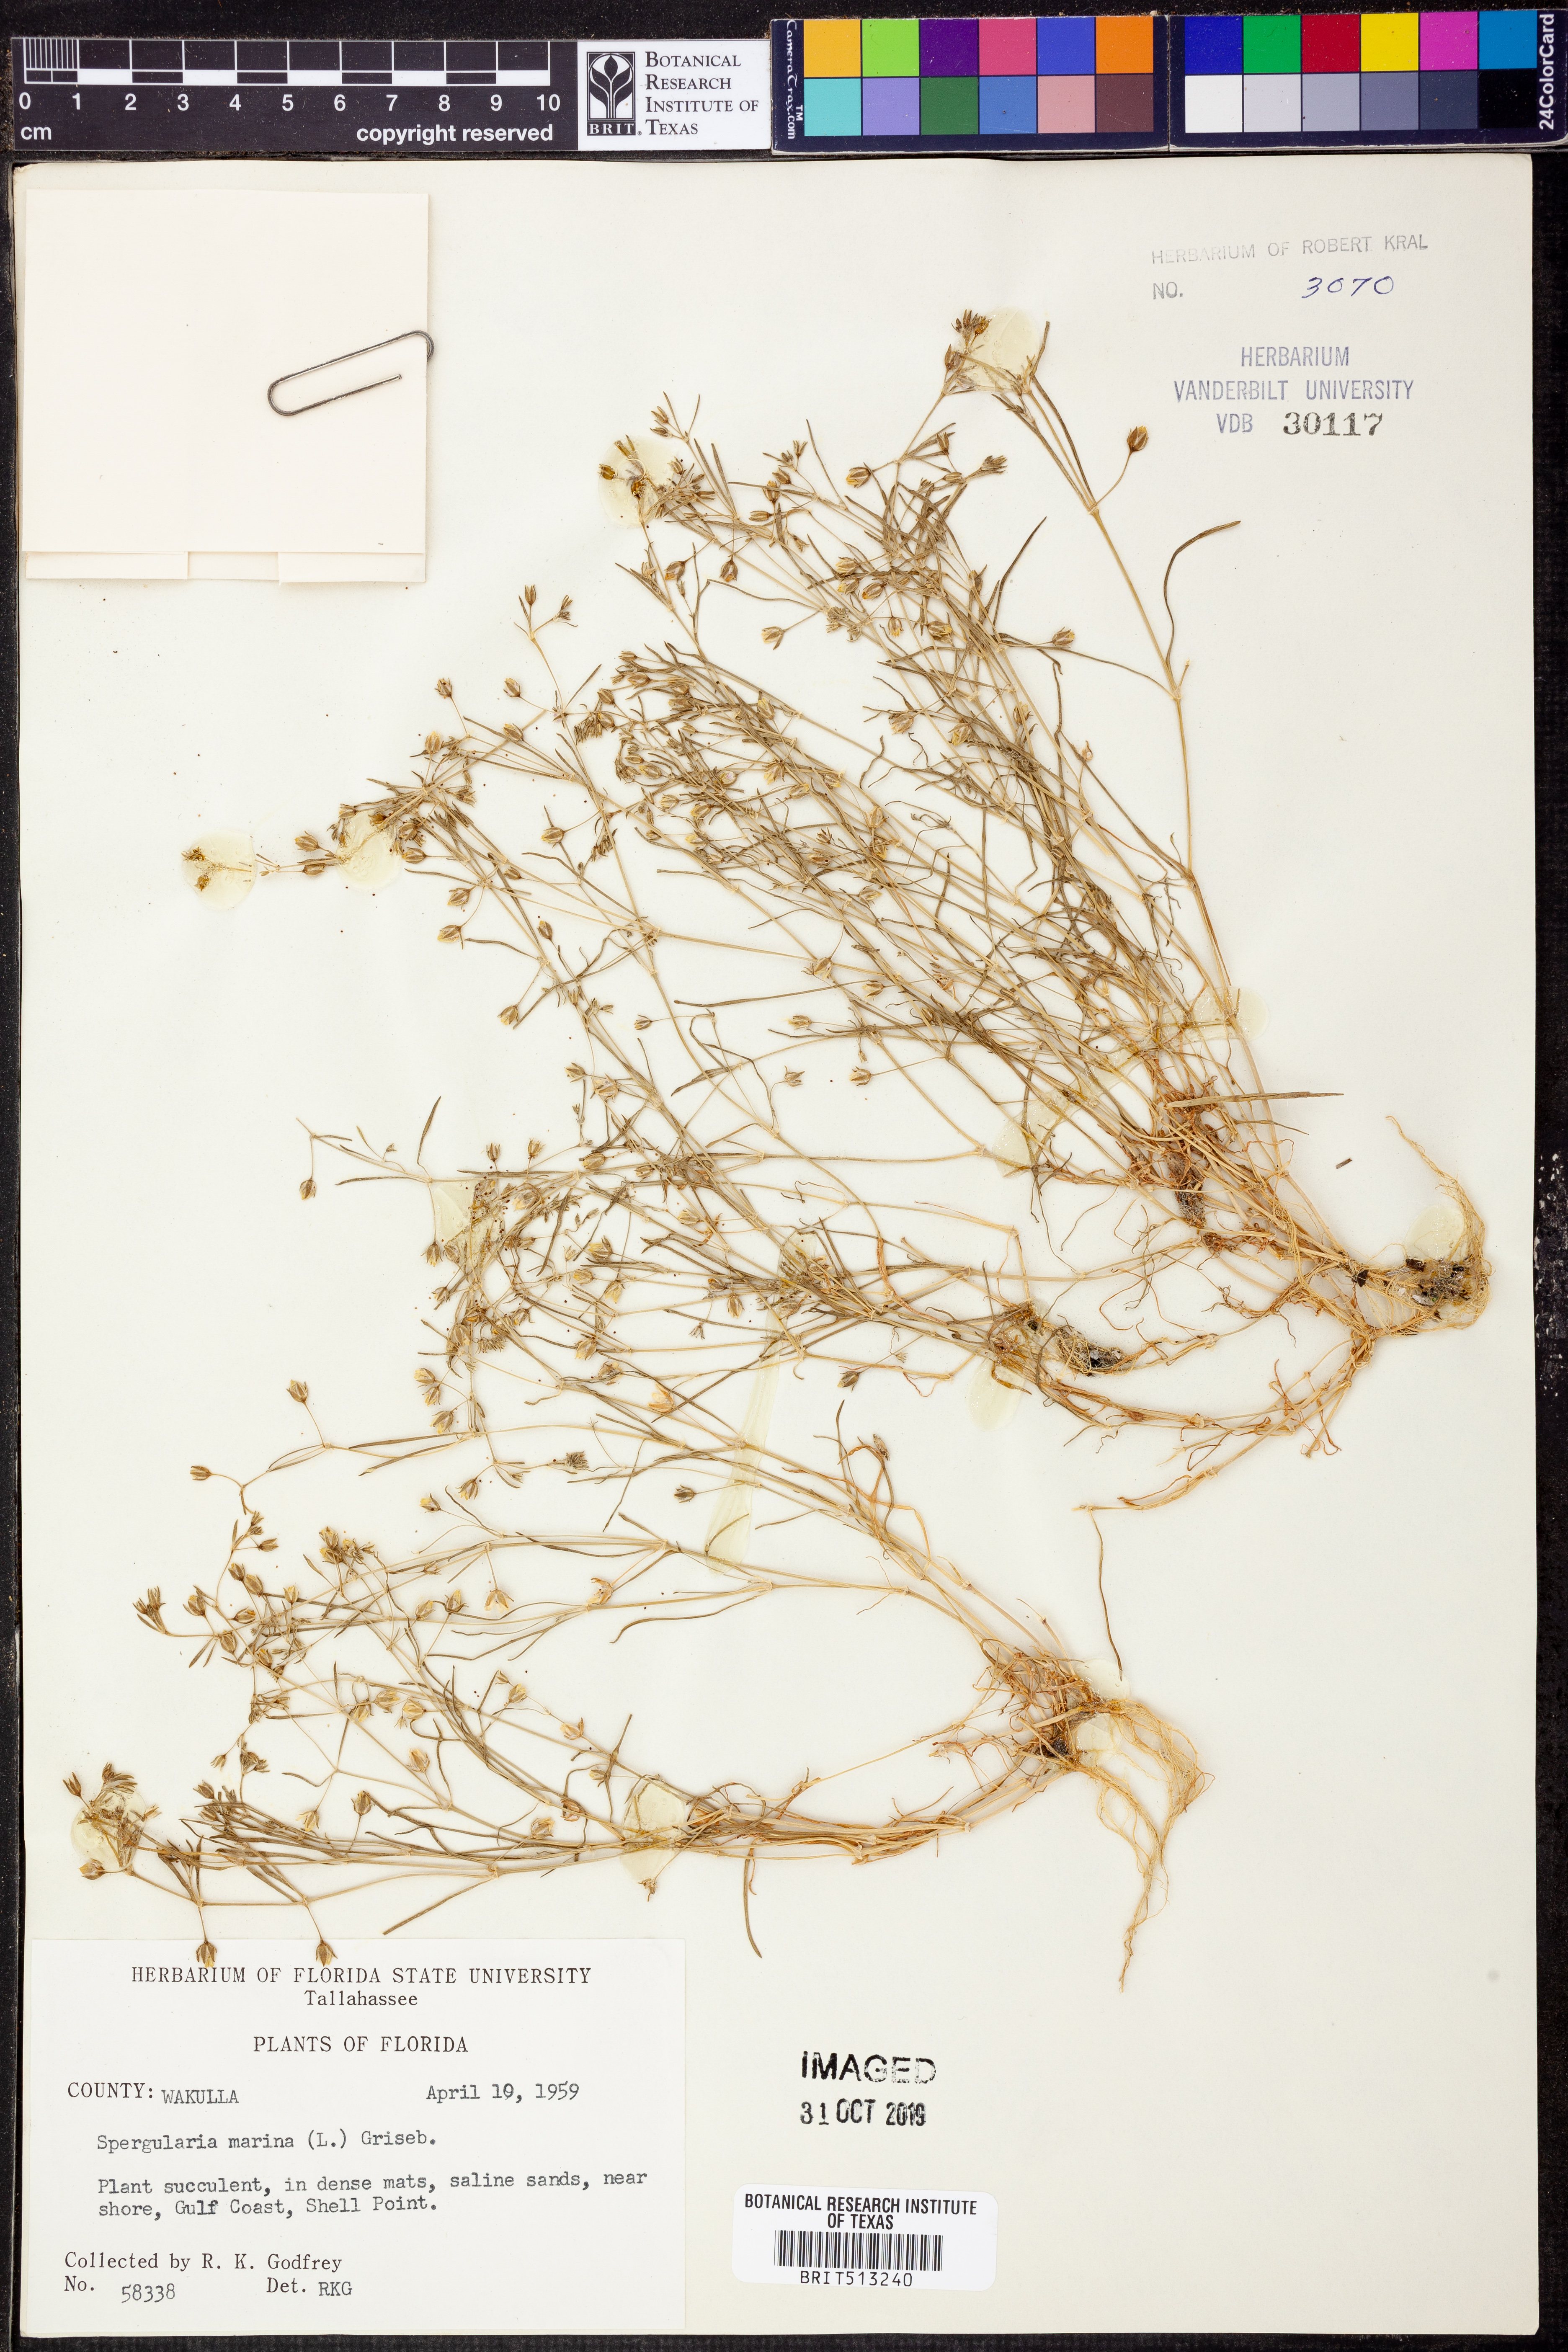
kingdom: Plantae
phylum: Tracheophyta
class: Magnoliopsida
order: Caryophyllales
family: Caryophyllaceae
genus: Spergularia
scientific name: Spergularia marina
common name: Lesser sea-spurrey
